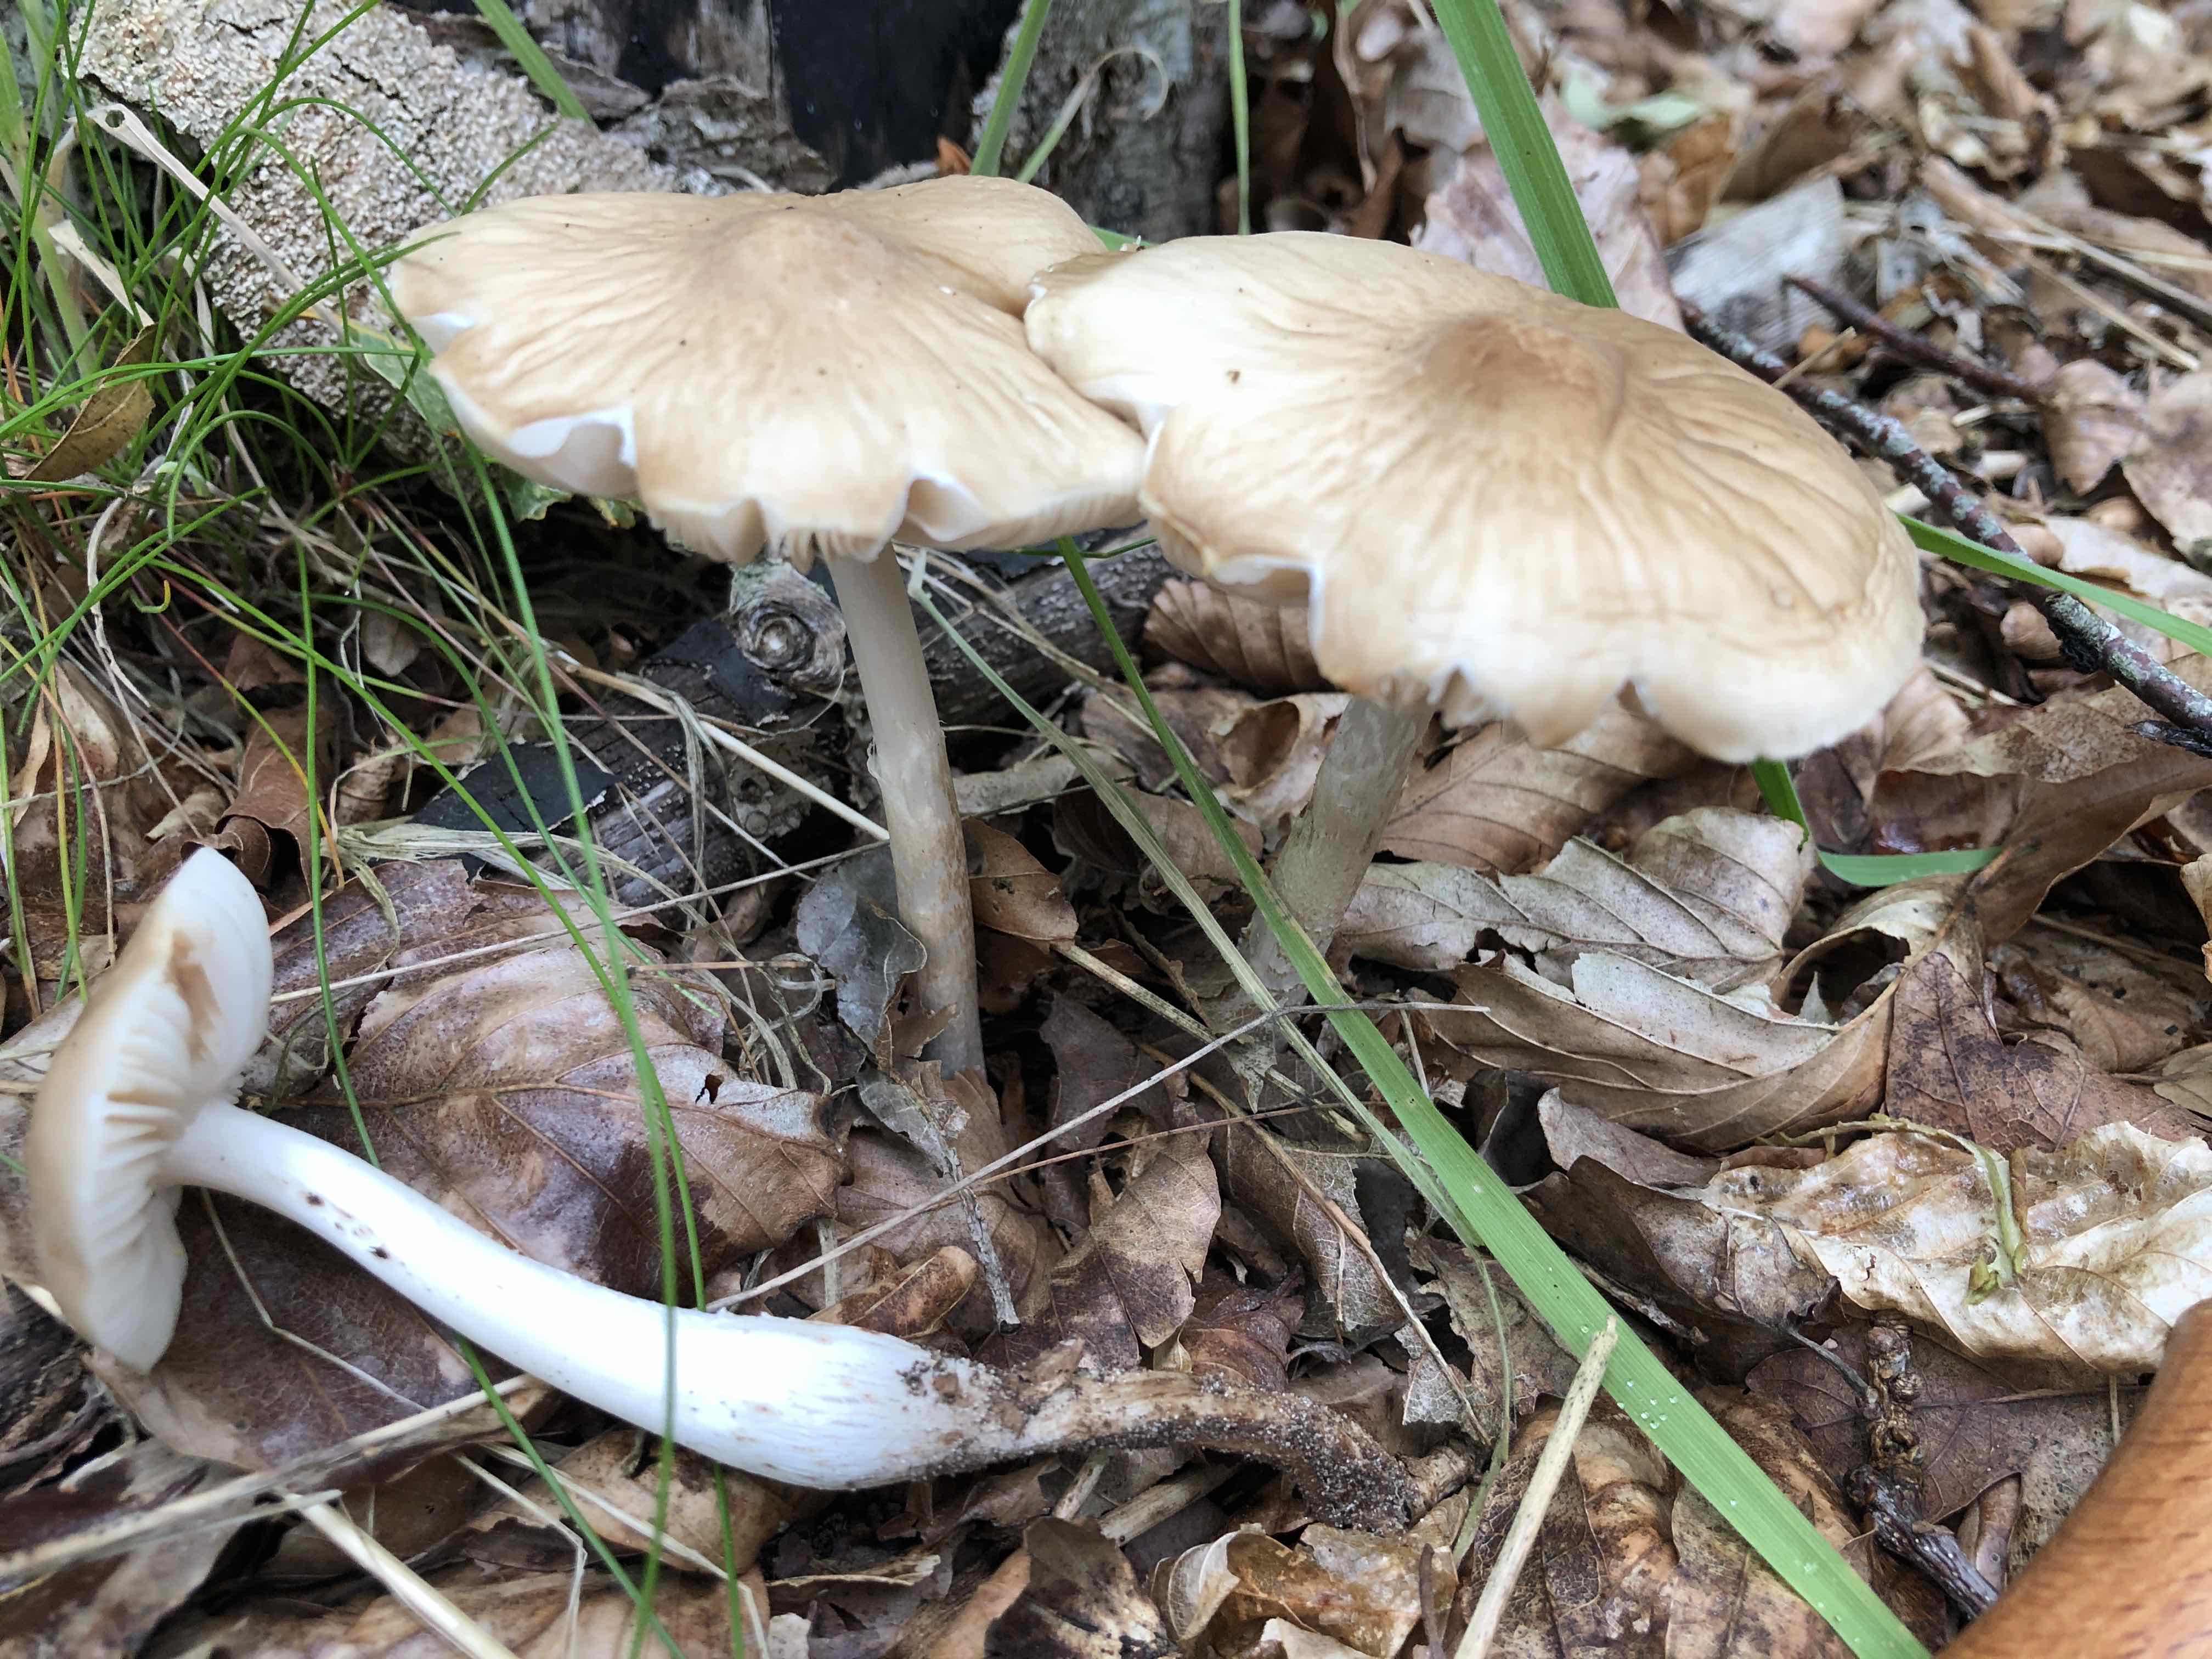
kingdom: Fungi
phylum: Basidiomycota
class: Agaricomycetes
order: Agaricales
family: Physalacriaceae
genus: Hymenopellis
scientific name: Hymenopellis radicata
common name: almindelig pælerodshat
